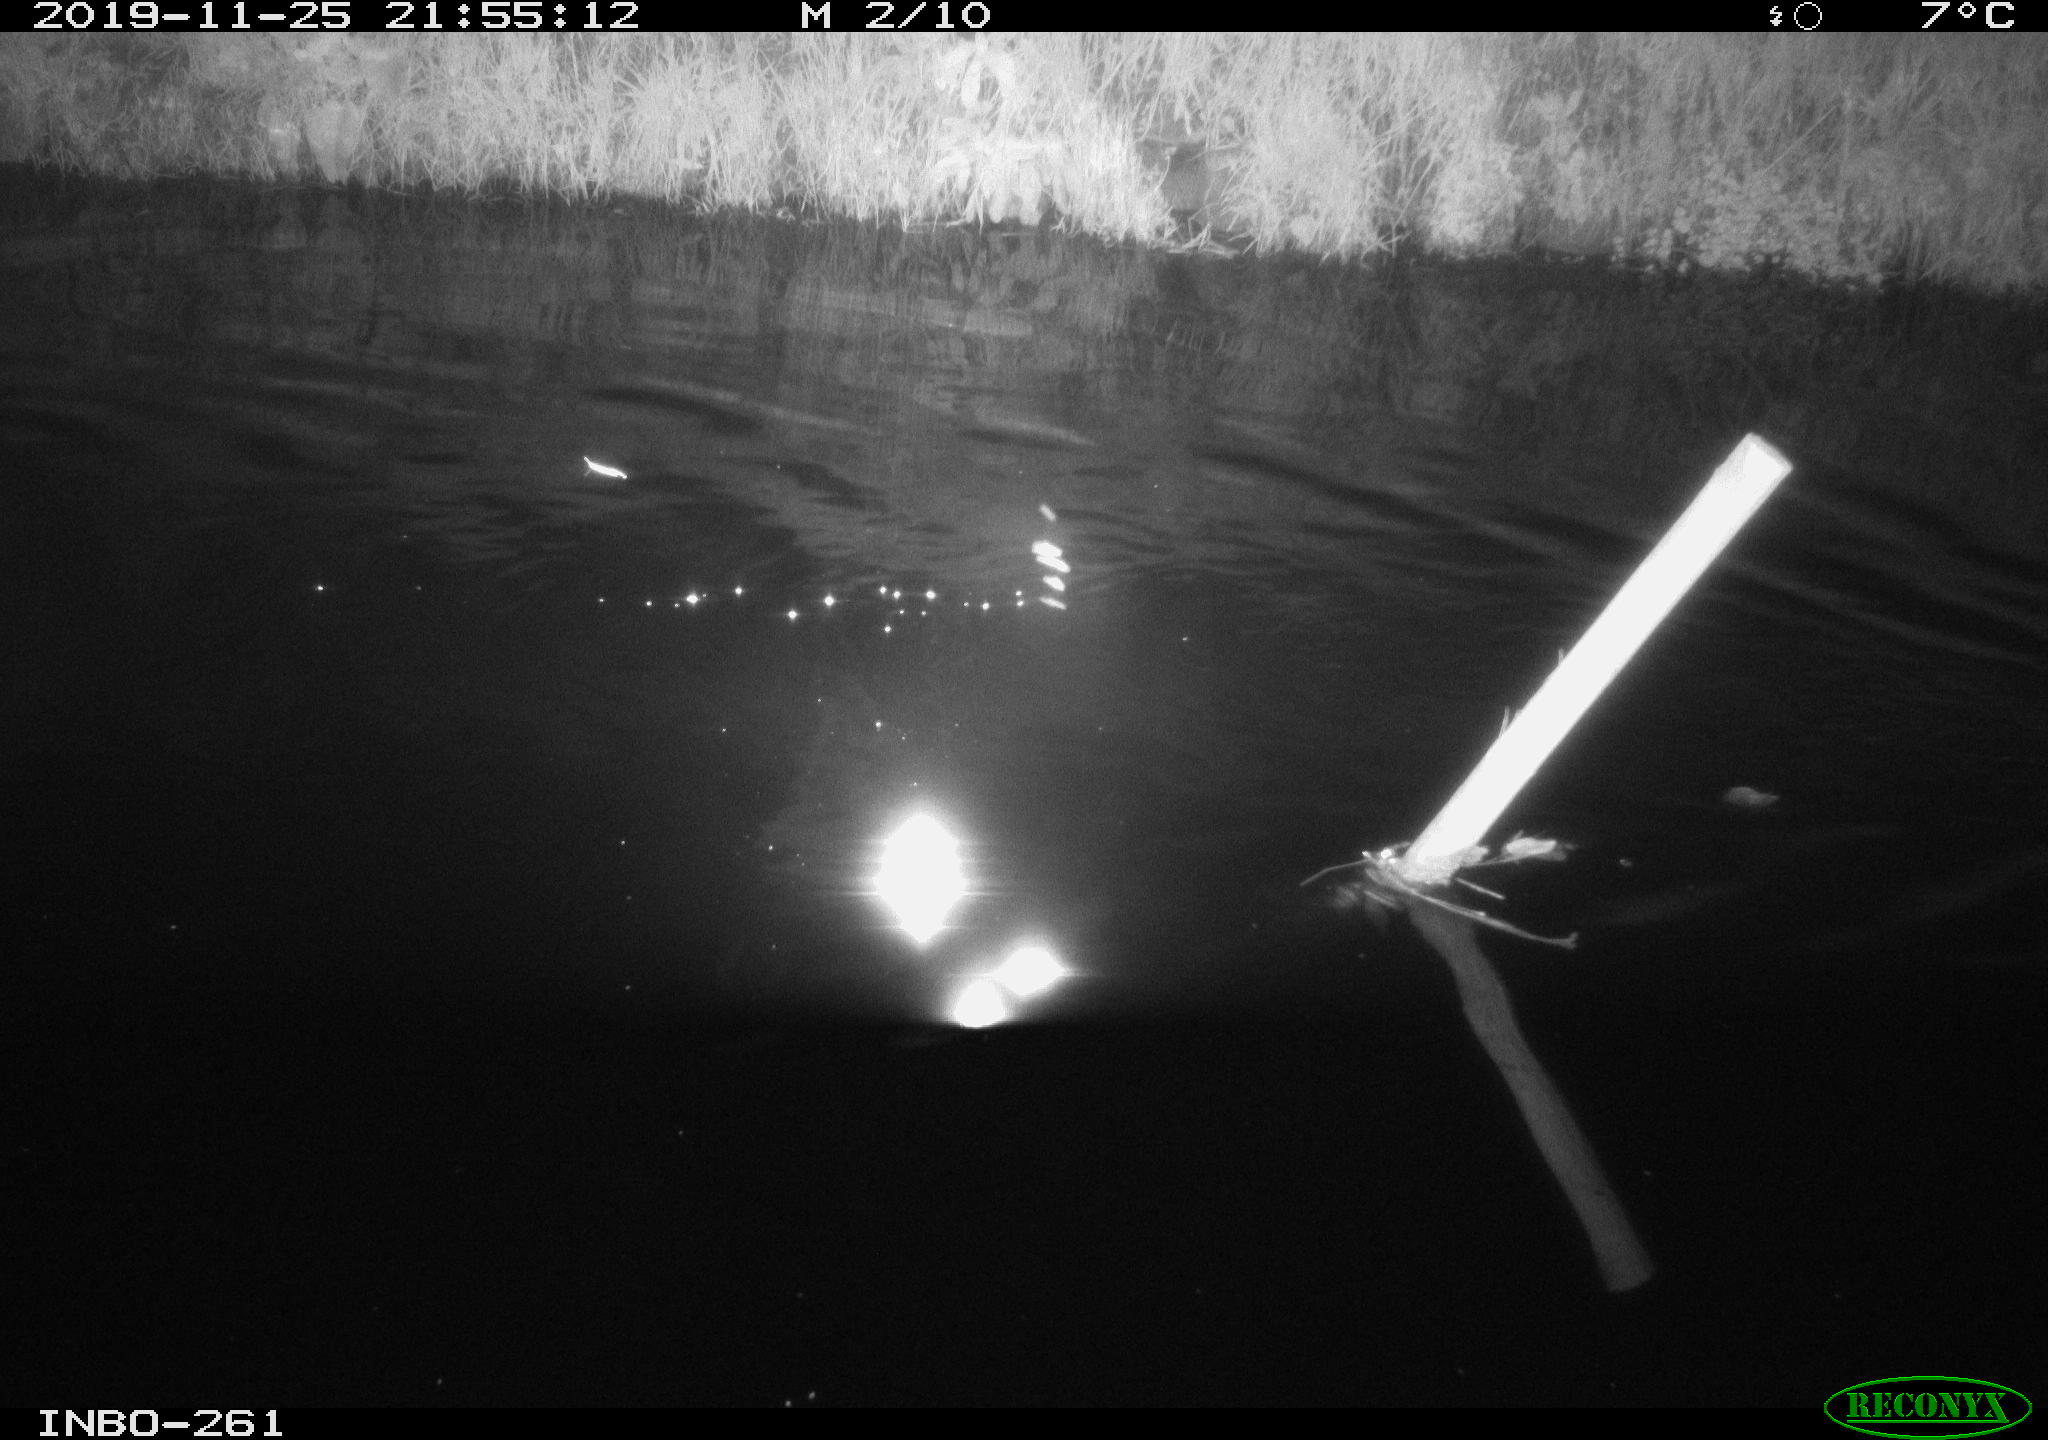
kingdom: Animalia
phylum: Chordata
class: Aves
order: Anseriformes
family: Anatidae
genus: Anas
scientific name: Anas platyrhynchos
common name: Mallard
